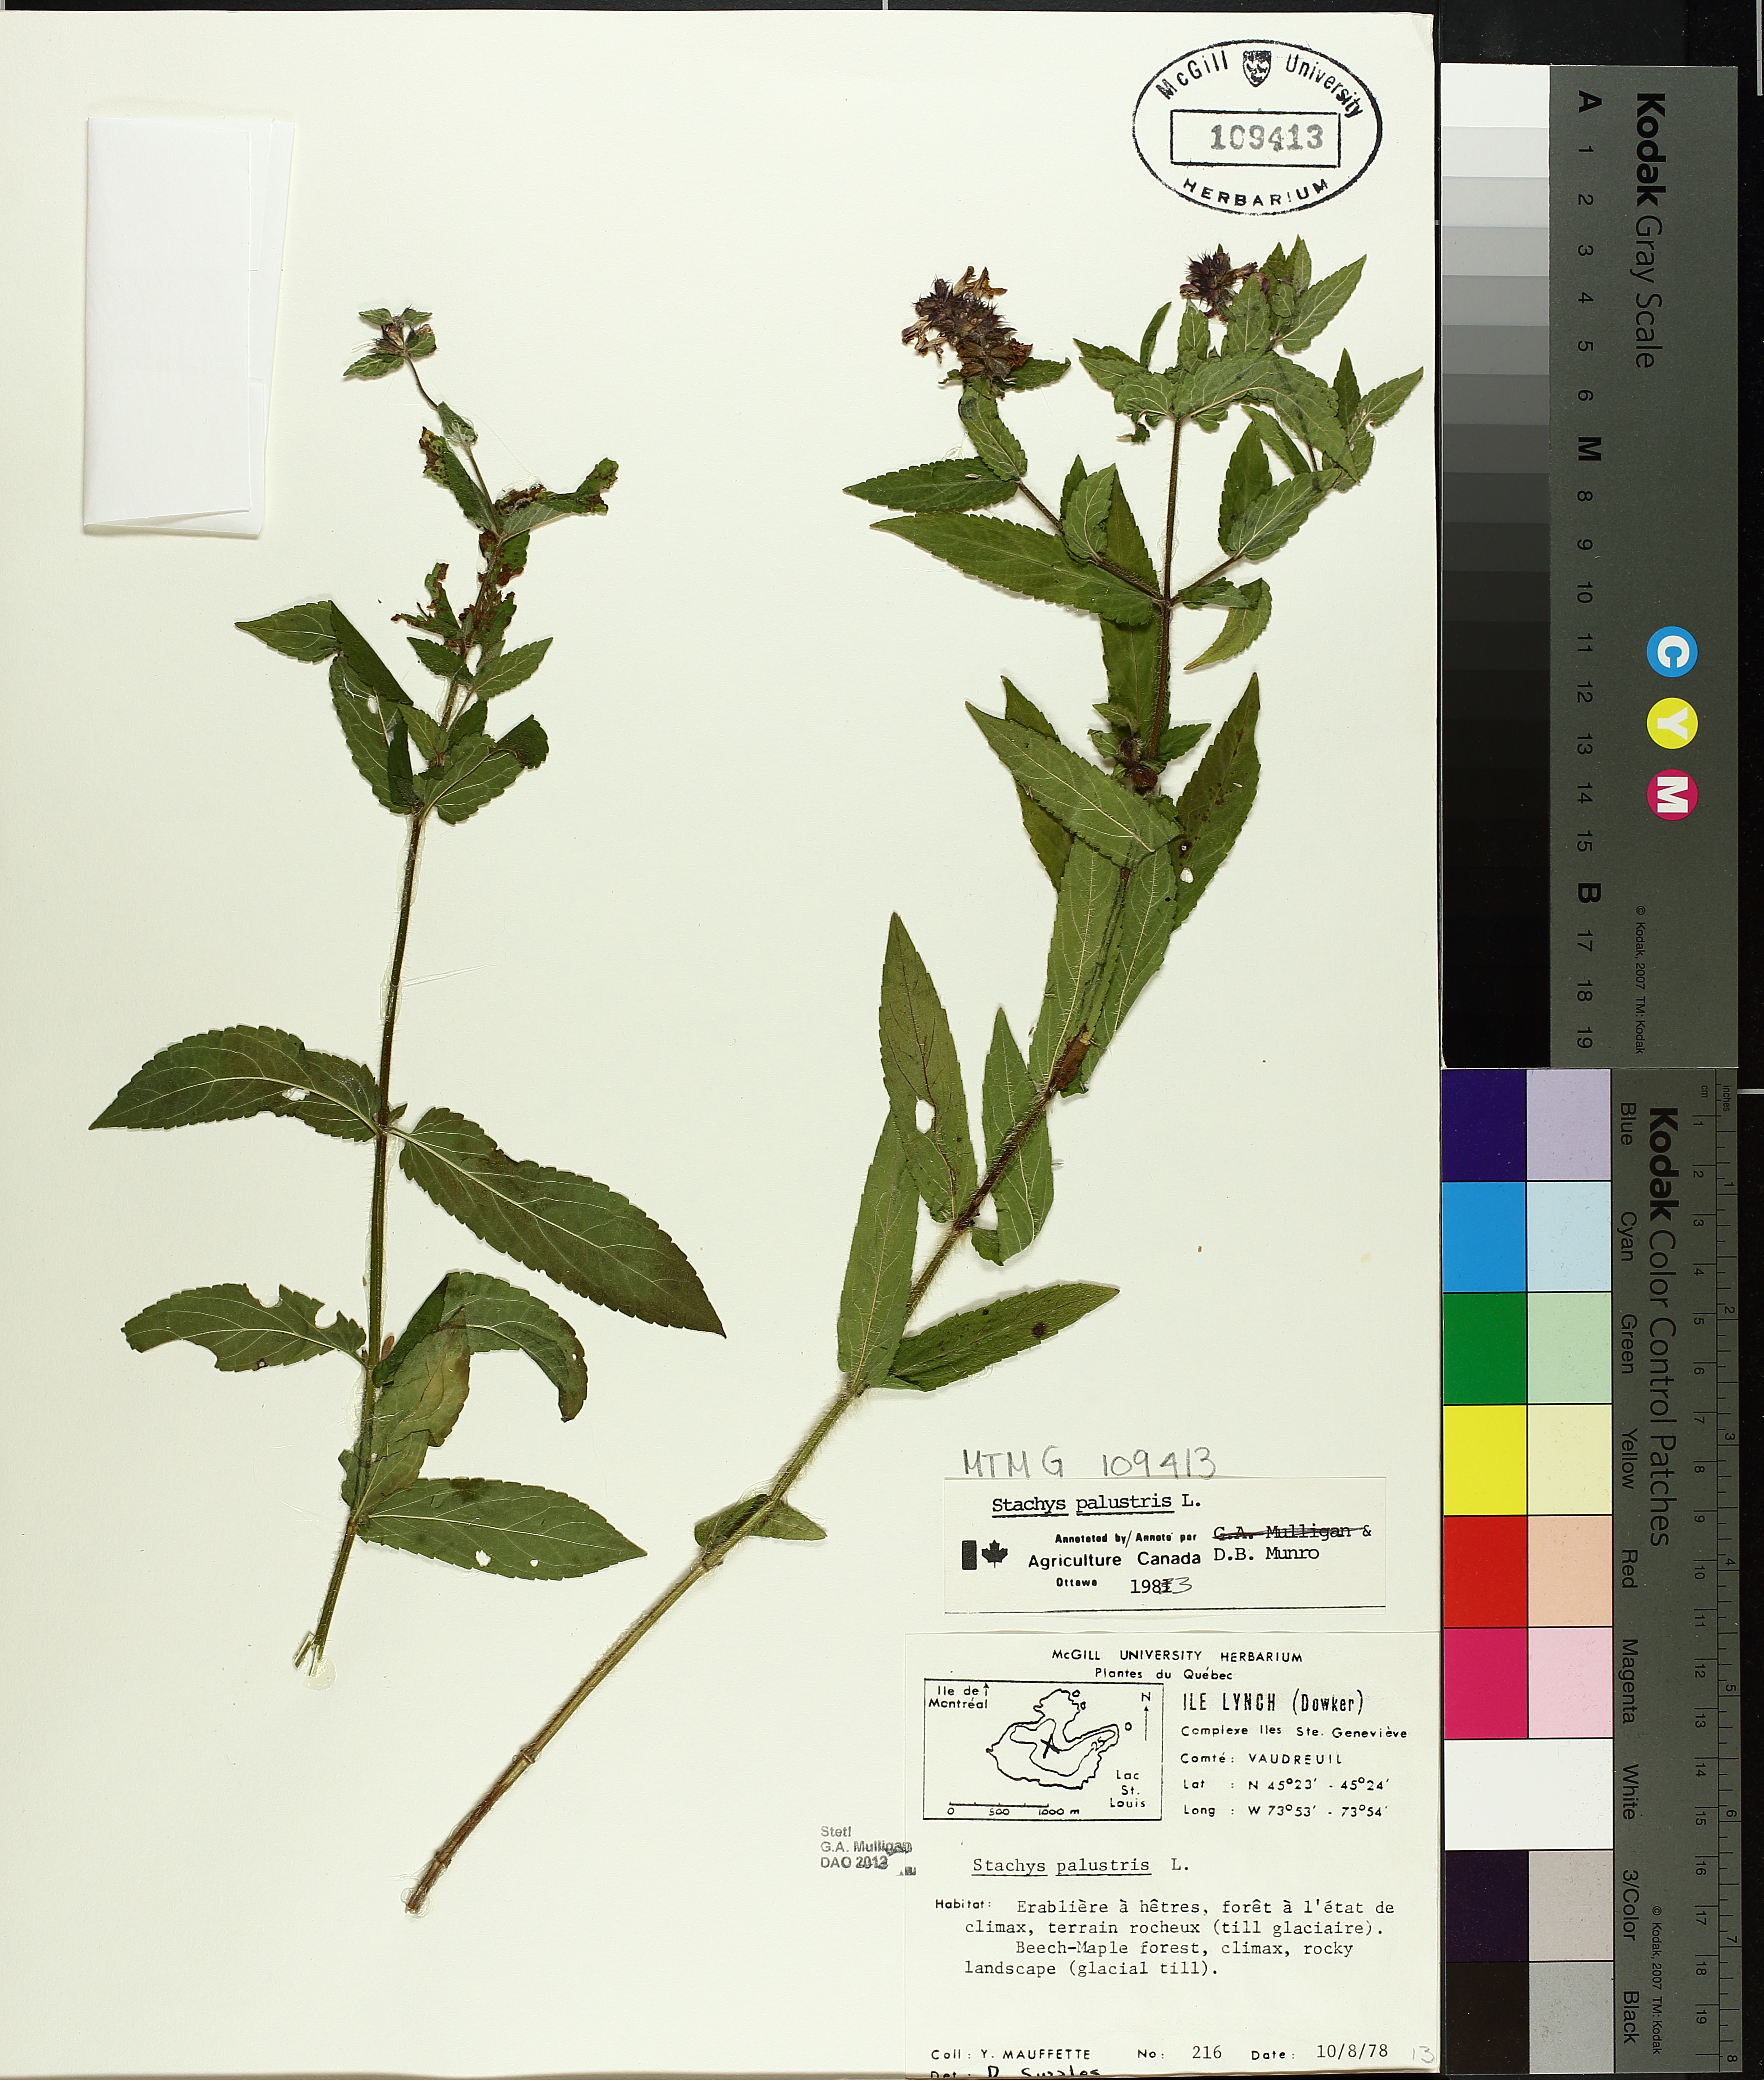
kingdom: Plantae
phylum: Tracheophyta
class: Magnoliopsida
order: Lamiales
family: Lamiaceae
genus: Stachys
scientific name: Stachys palustris
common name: Marsh woundwort
